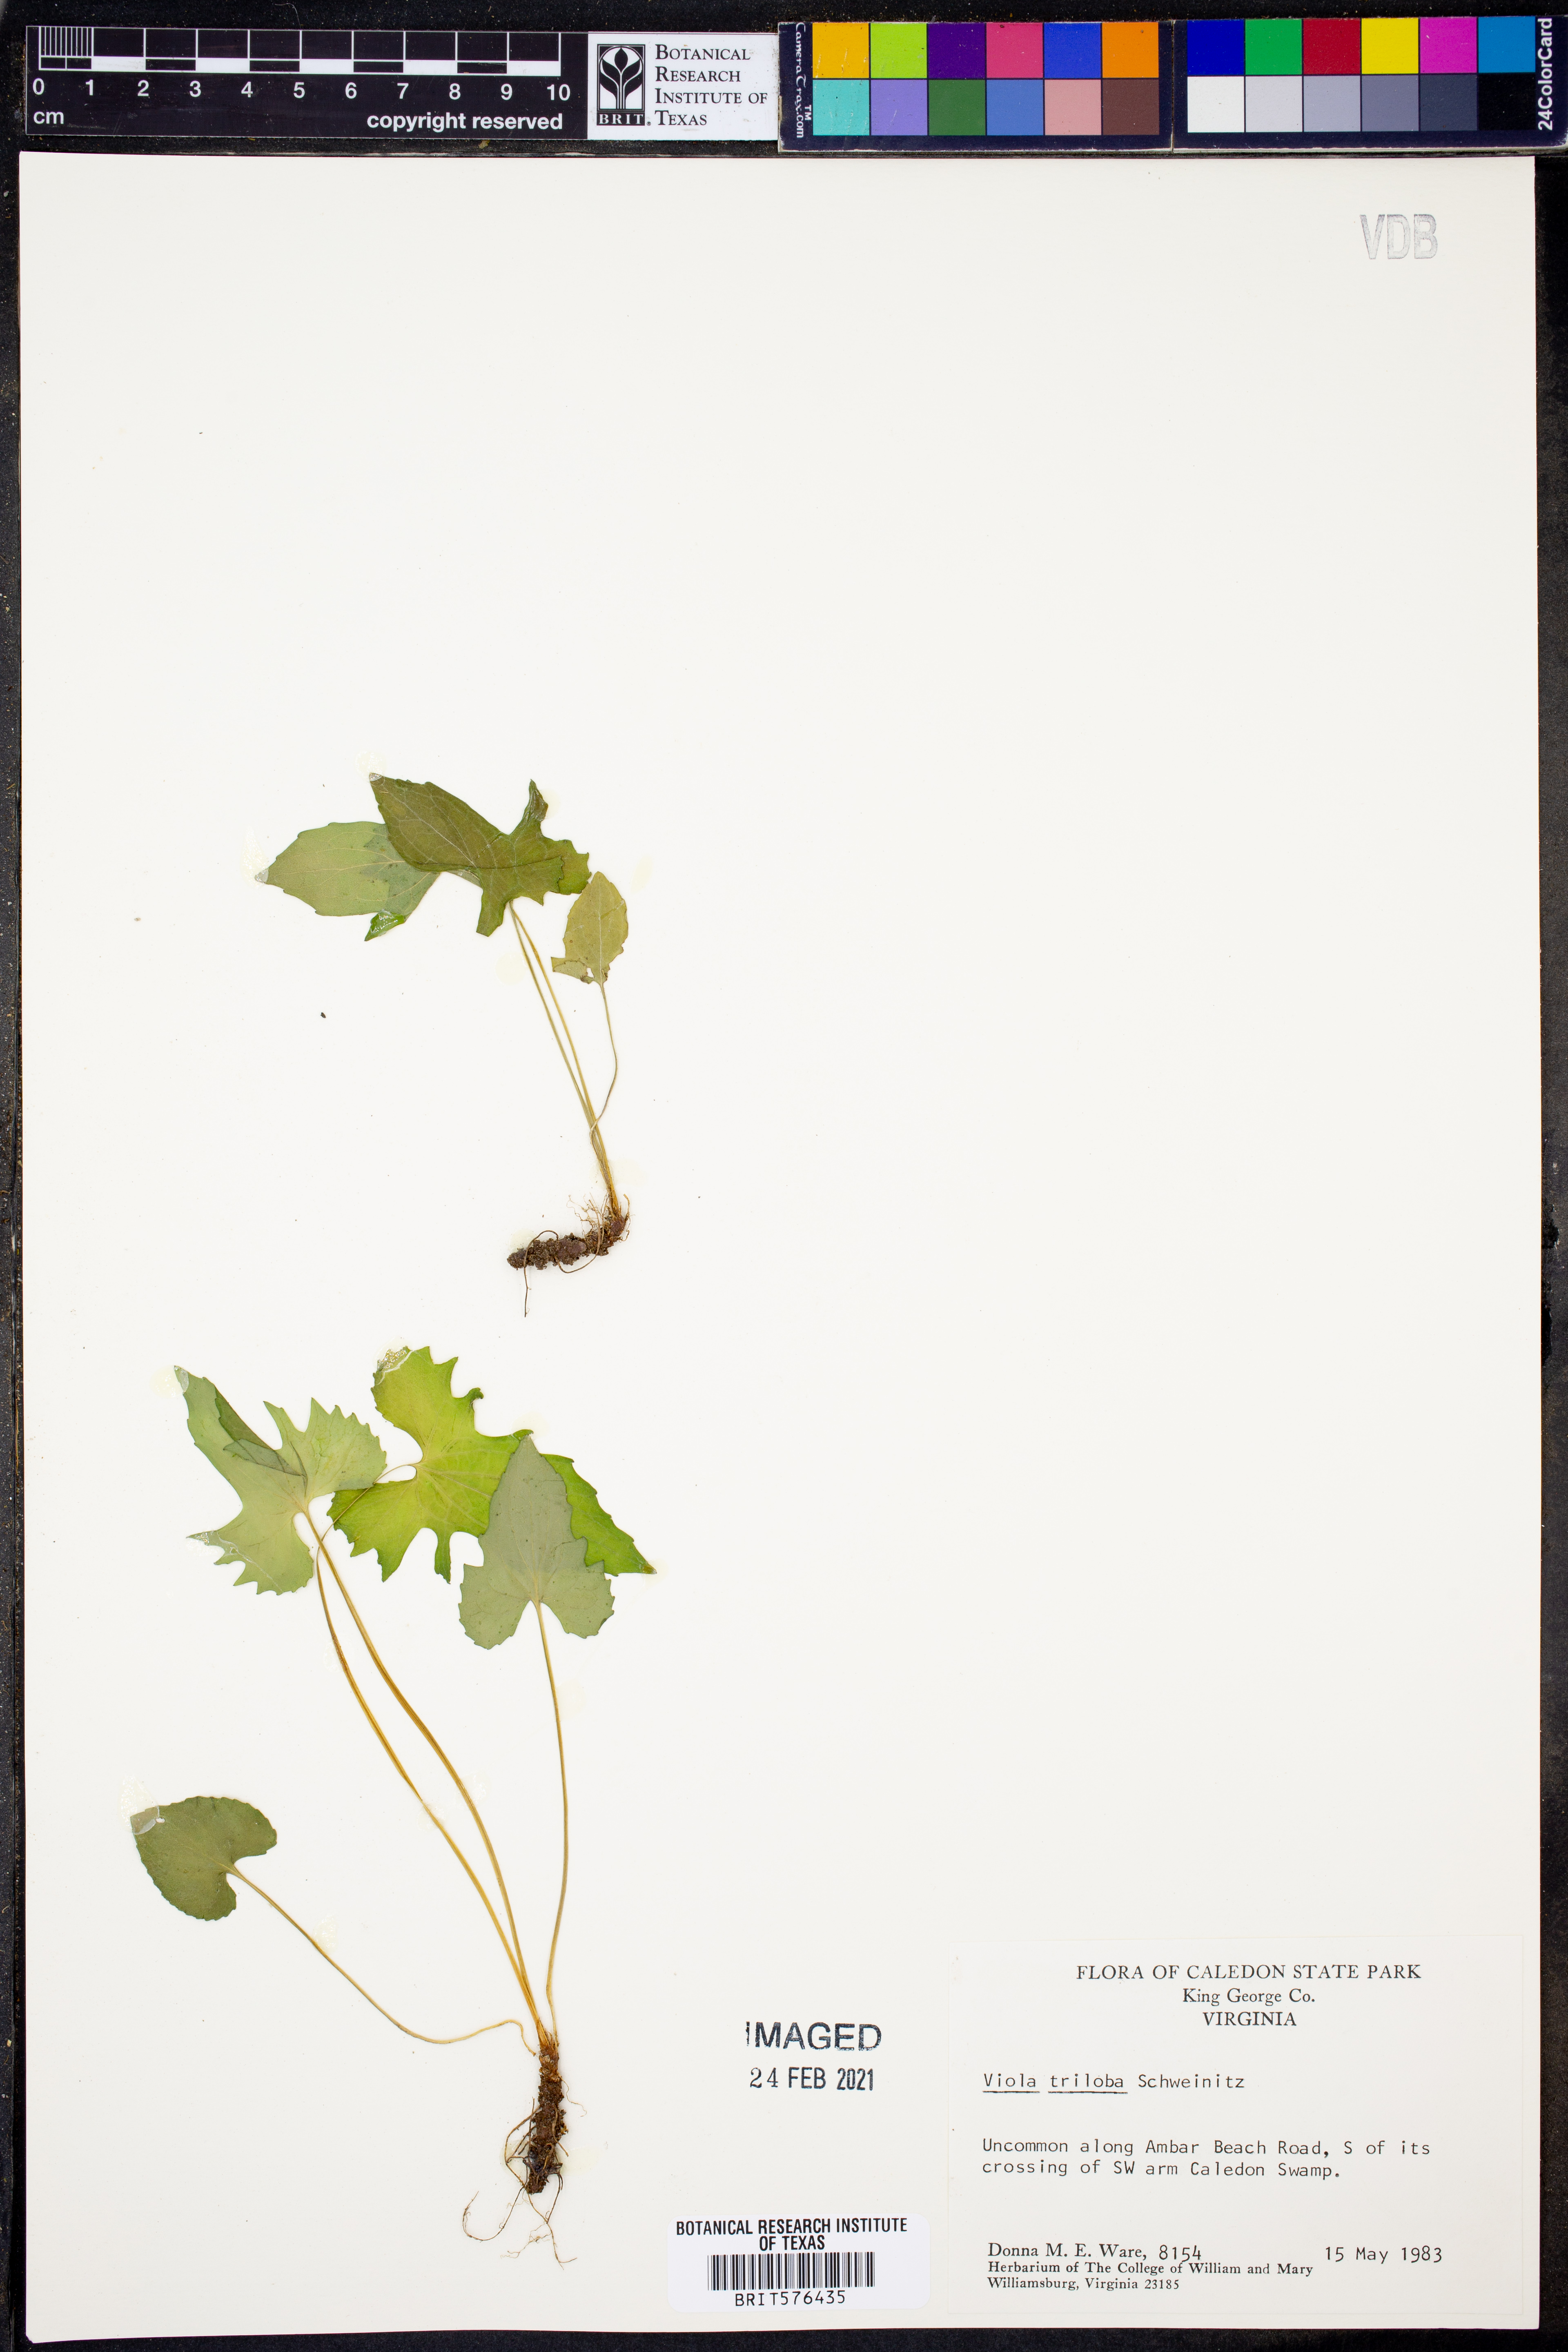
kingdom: Plantae
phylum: Tracheophyta
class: Magnoliopsida
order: Malpighiales
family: Violaceae
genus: Viola
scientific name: Viola palmata
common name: Early blue violet
